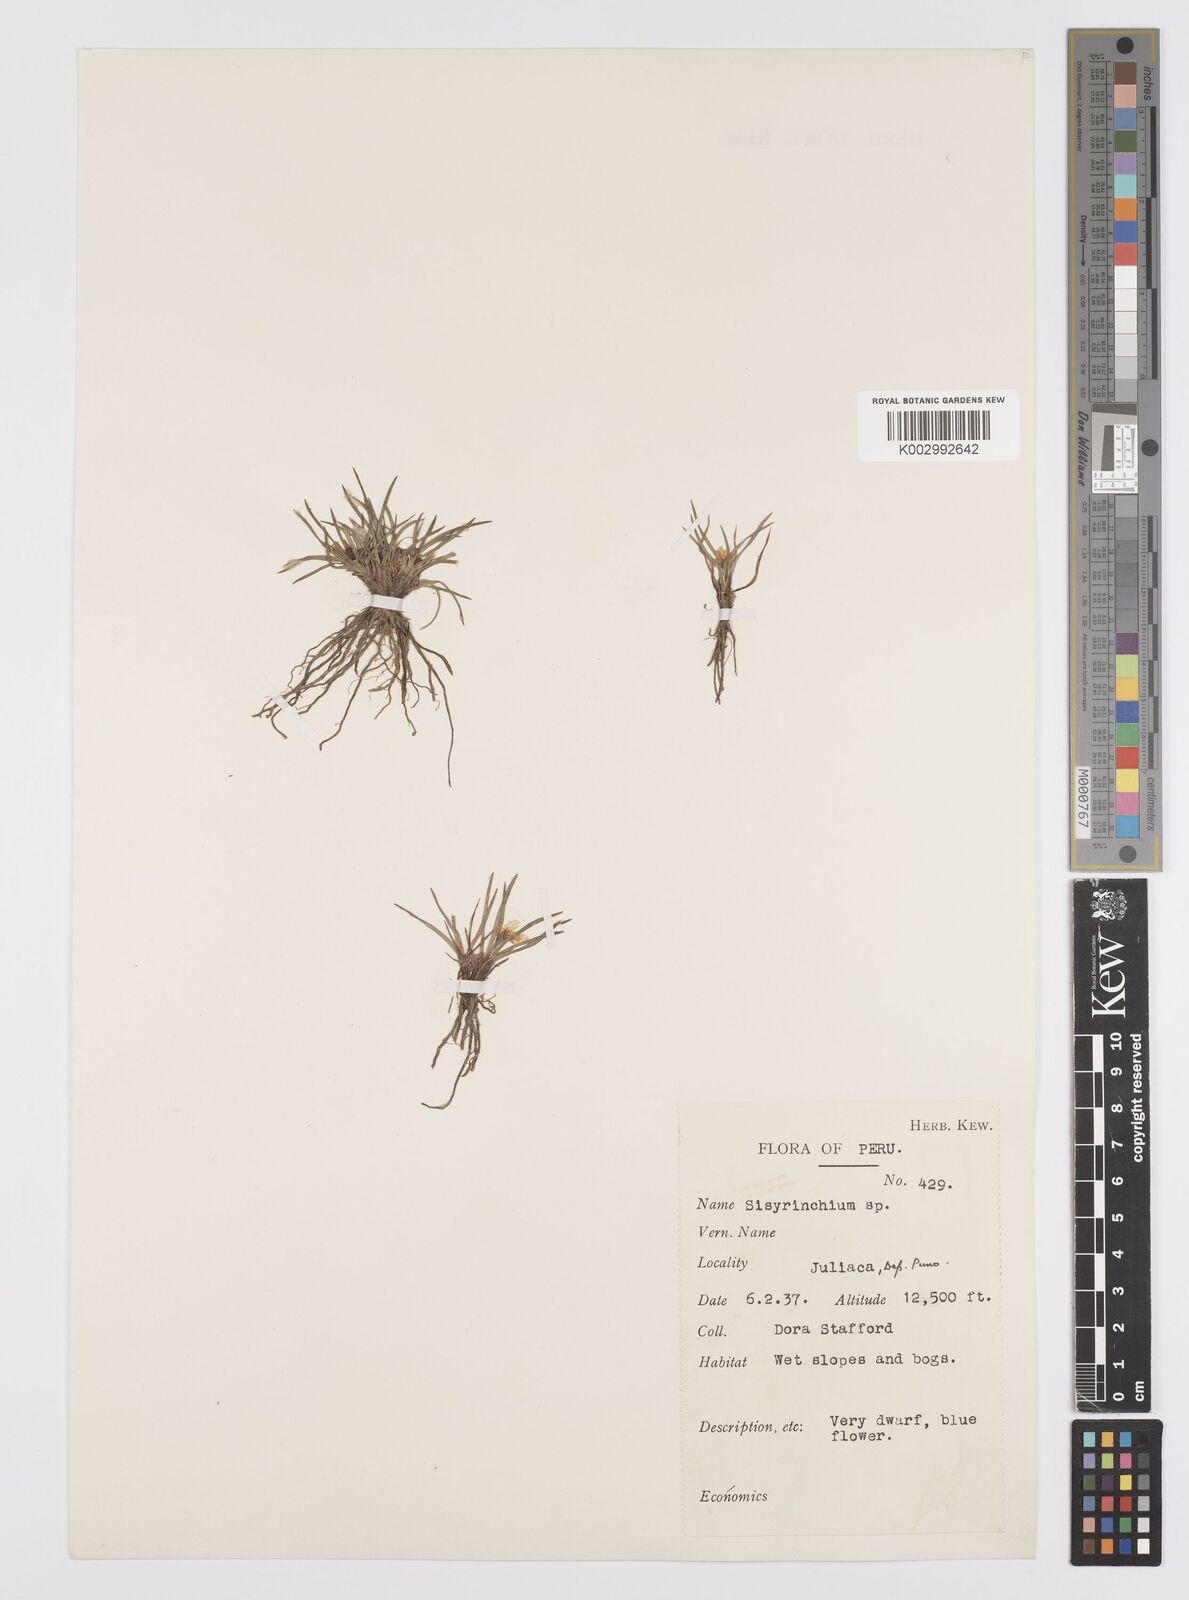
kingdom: Plantae
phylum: Tracheophyta
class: Liliopsida
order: Asparagales
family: Iridaceae
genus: Sisyrinchium
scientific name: Sisyrinchium
